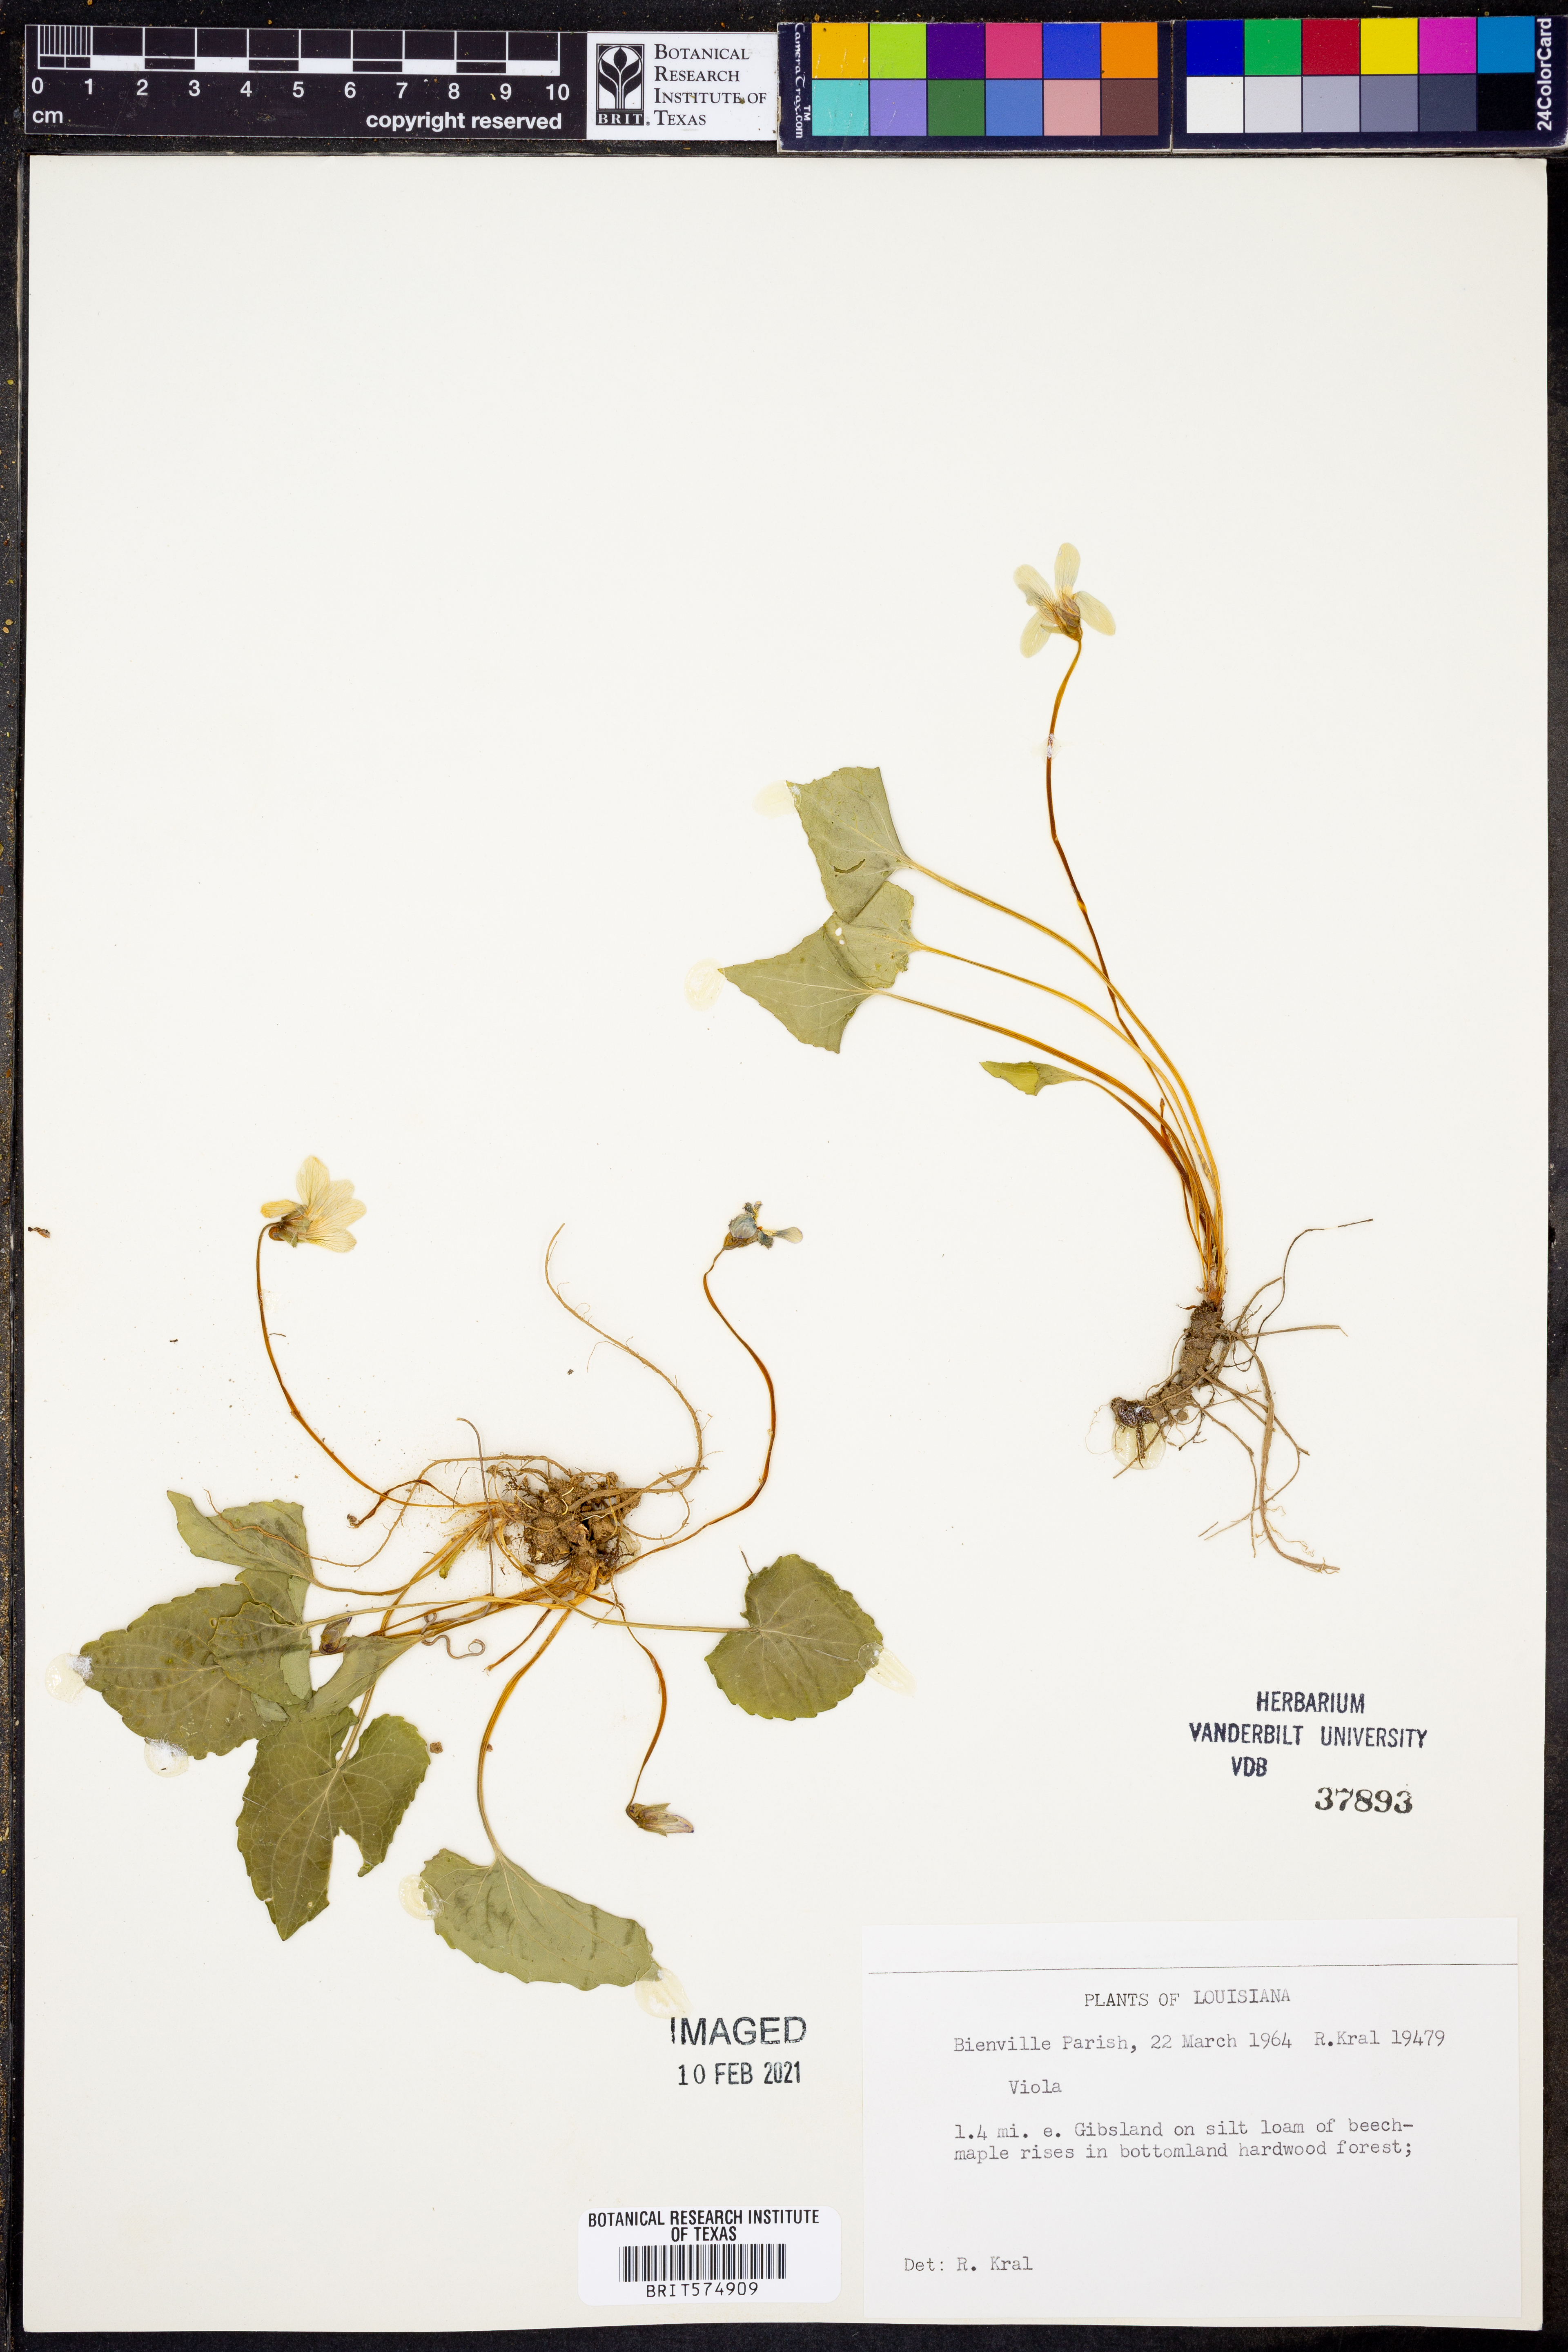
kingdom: Plantae
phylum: Tracheophyta
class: Magnoliopsida
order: Malpighiales
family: Violaceae
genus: Viola
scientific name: Viola
